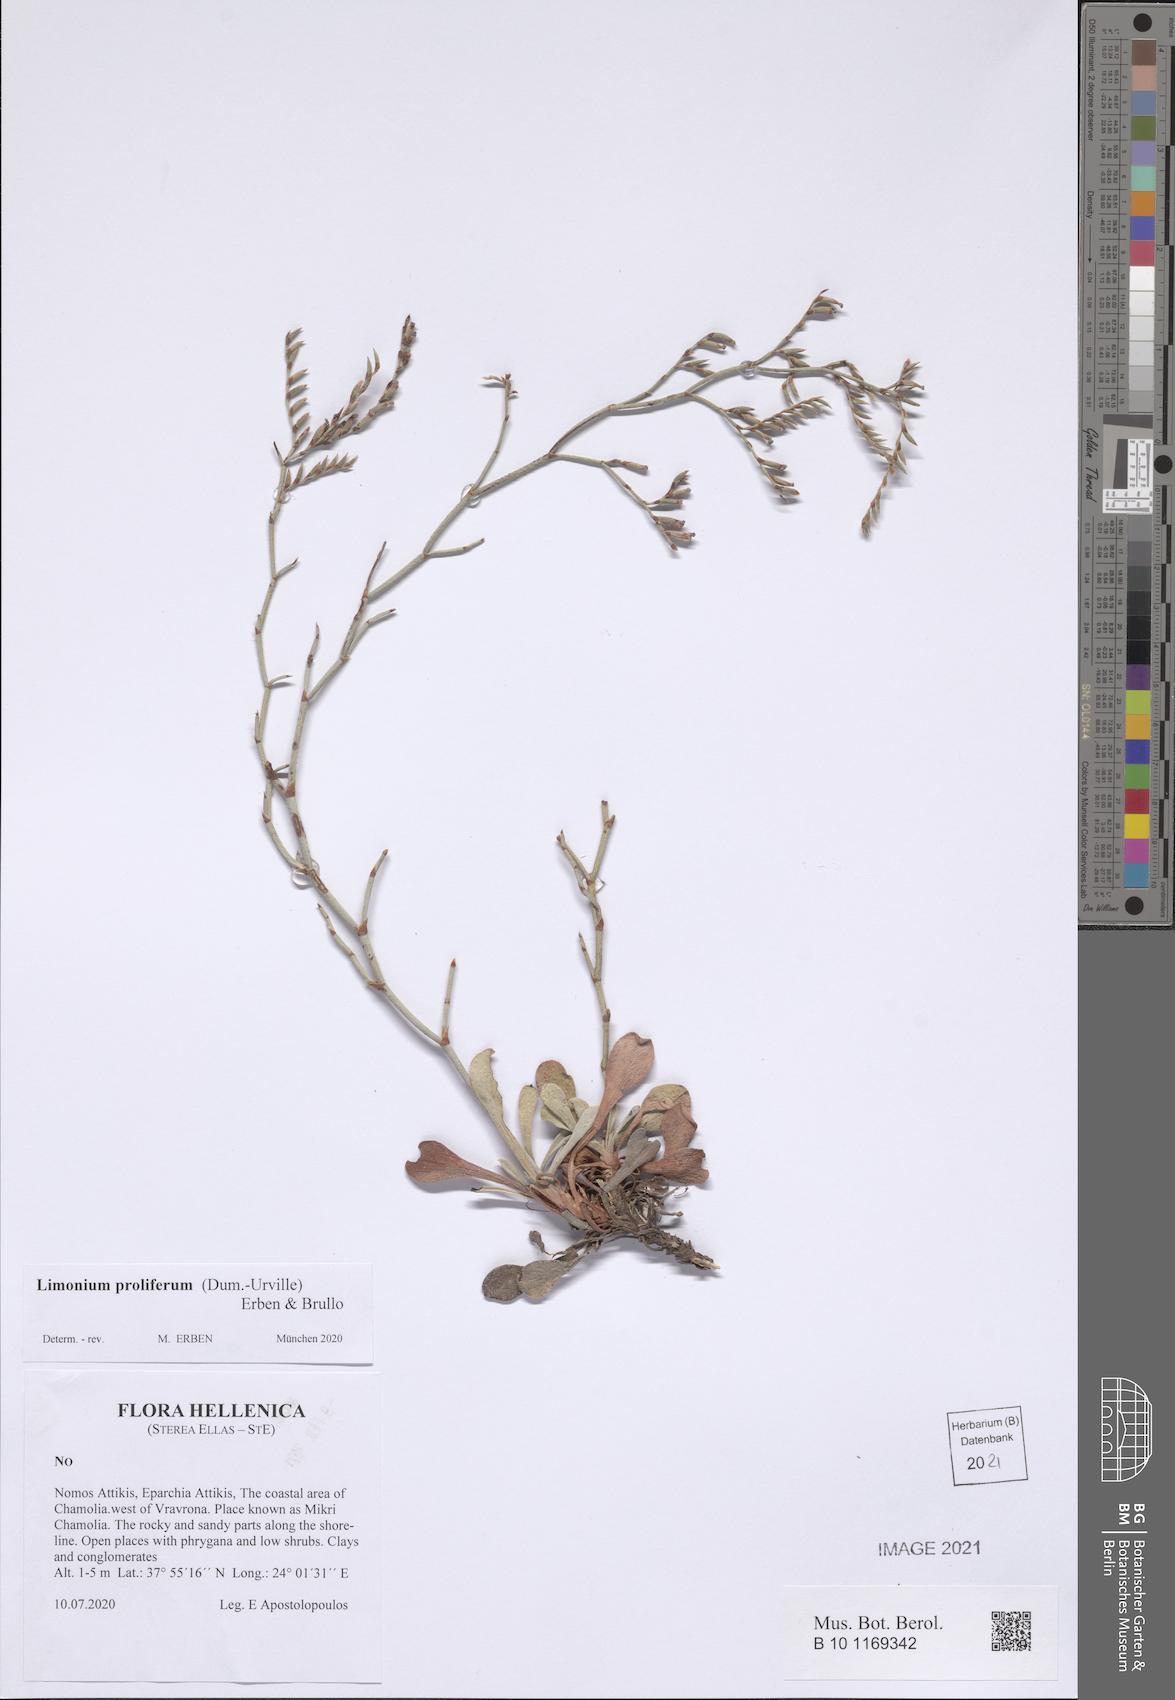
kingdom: Plantae
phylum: Tracheophyta
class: Magnoliopsida
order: Caryophyllales
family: Plumbaginaceae
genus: Limonium
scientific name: Limonium proliferum
